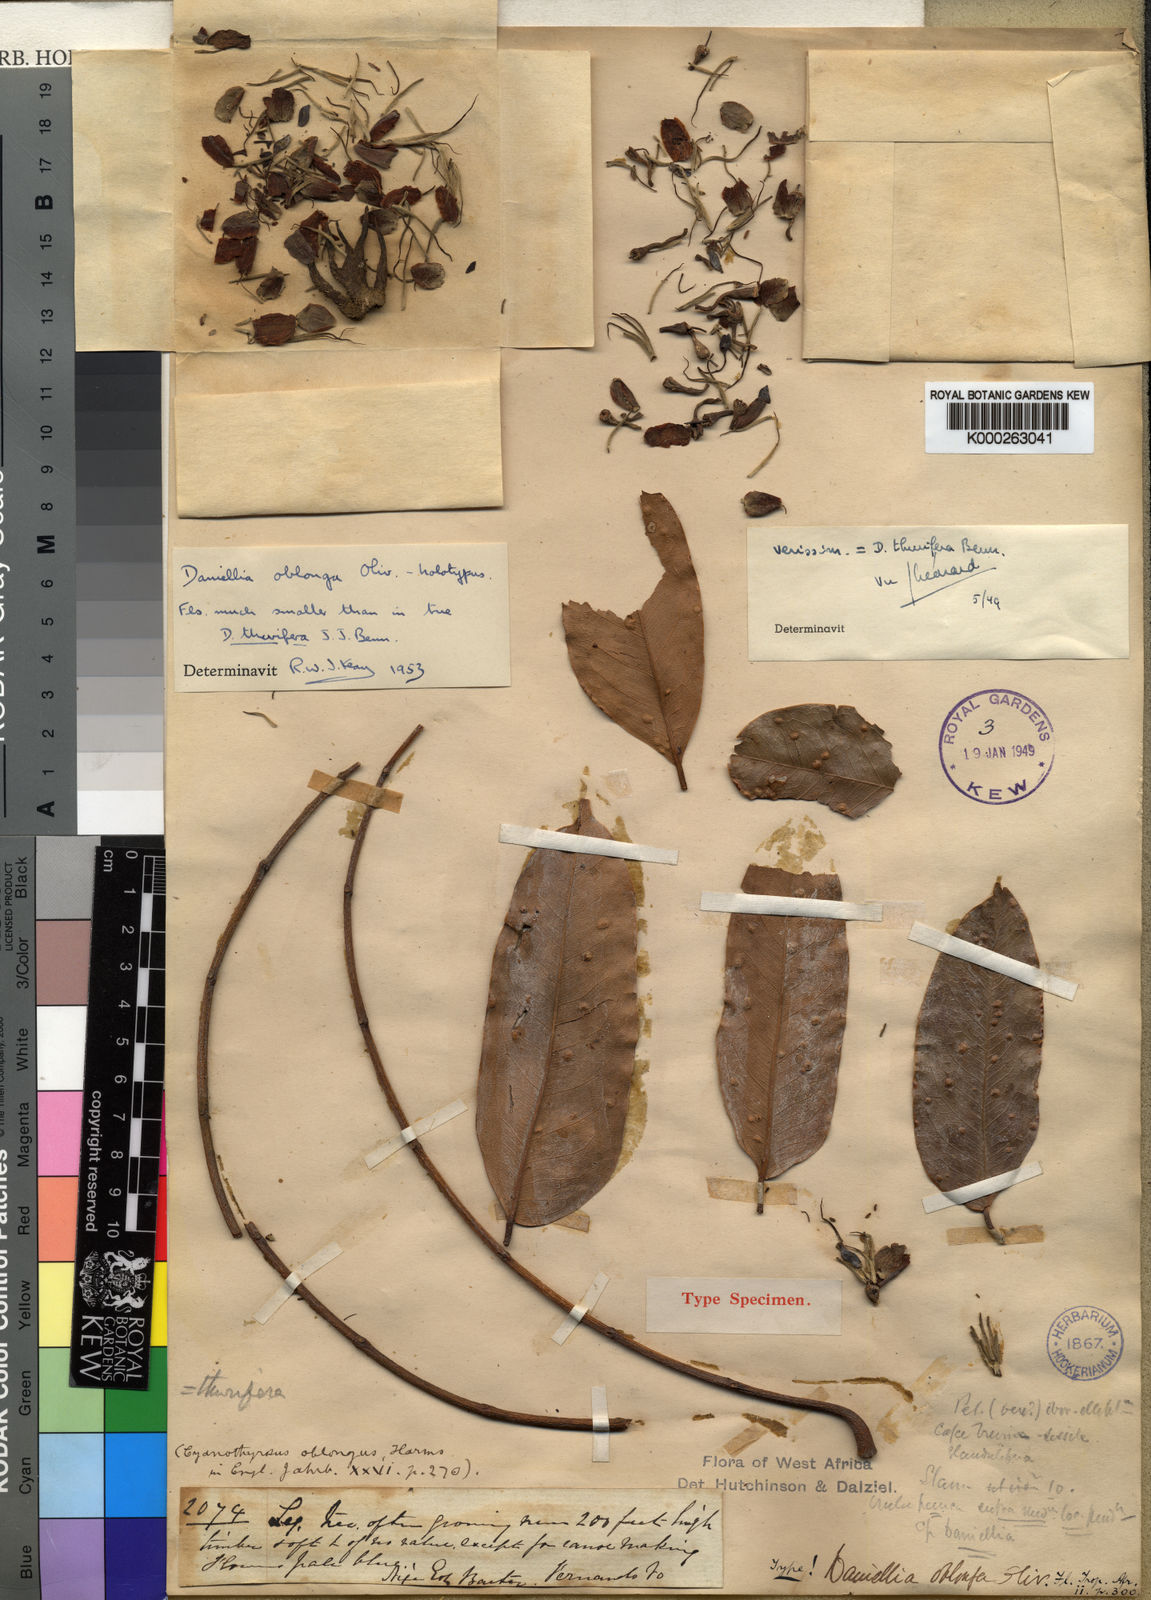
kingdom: Plantae
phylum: Tracheophyta
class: Magnoliopsida
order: Fabales
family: Fabaceae
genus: Daniellia
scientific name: Daniellia oblonga
